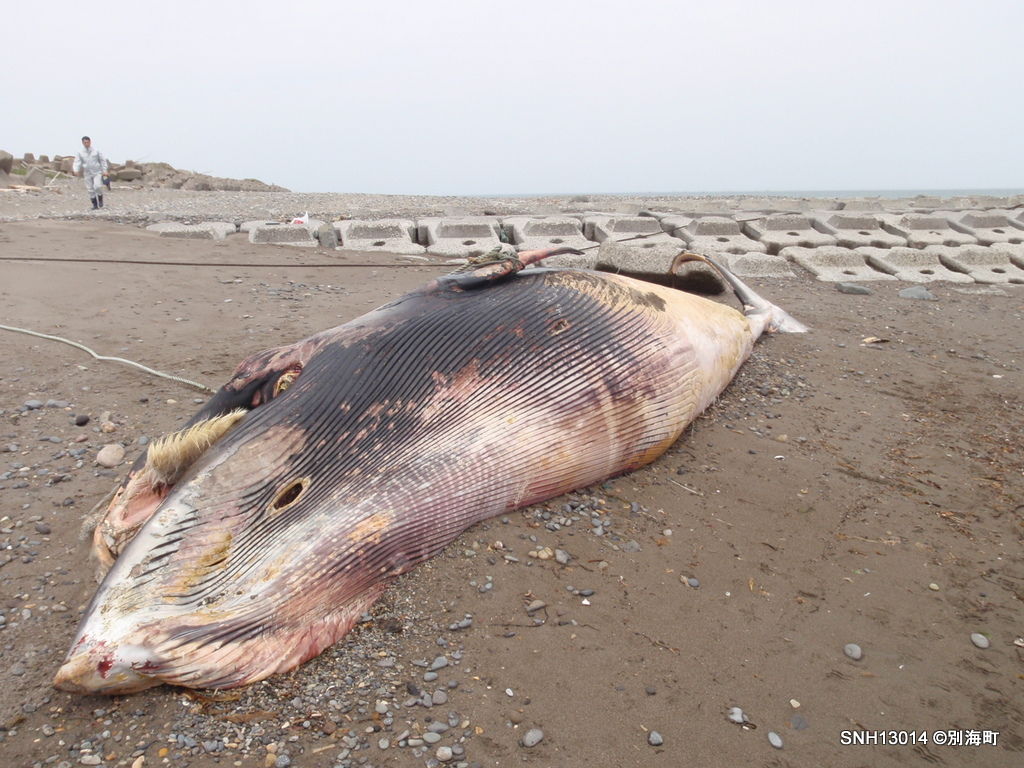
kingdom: Animalia
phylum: Chordata
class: Mammalia
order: Cetacea
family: Balaenopteridae
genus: Balaenoptera
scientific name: Balaenoptera acutorostrata
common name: Minke whale
